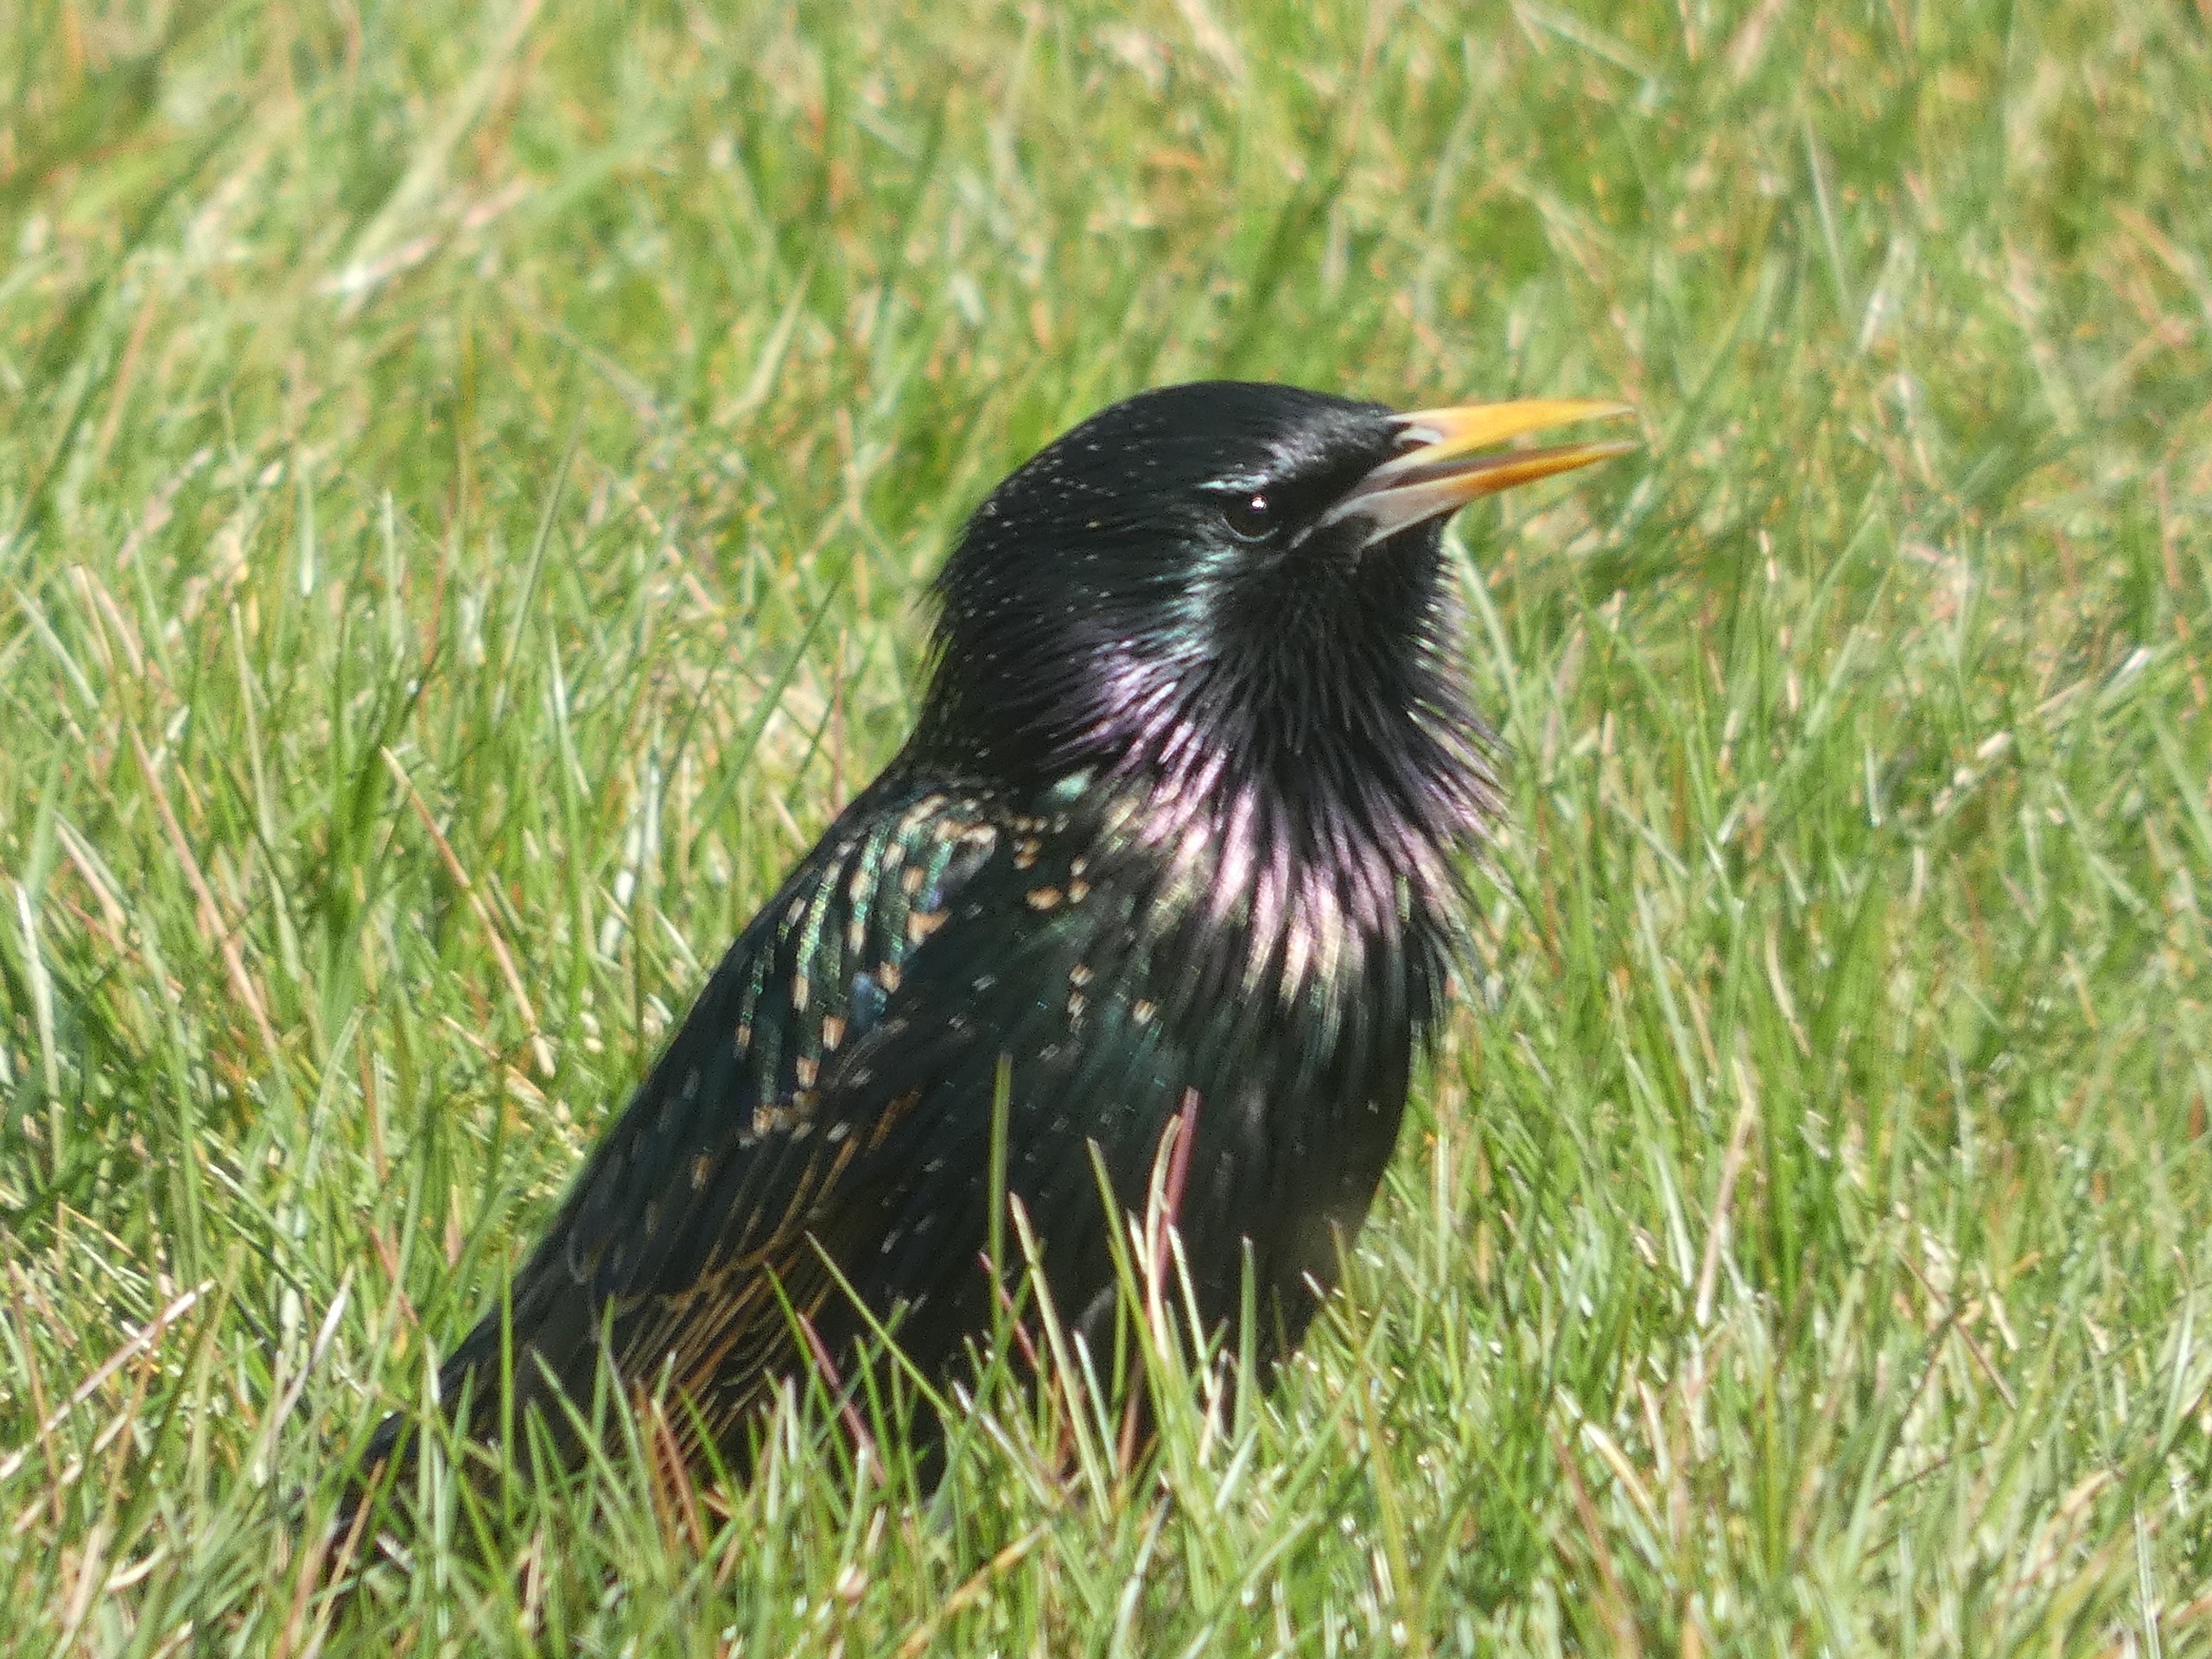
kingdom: Animalia
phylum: Chordata
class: Aves
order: Passeriformes
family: Sturnidae
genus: Sturnus
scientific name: Sturnus vulgaris
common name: Stær
